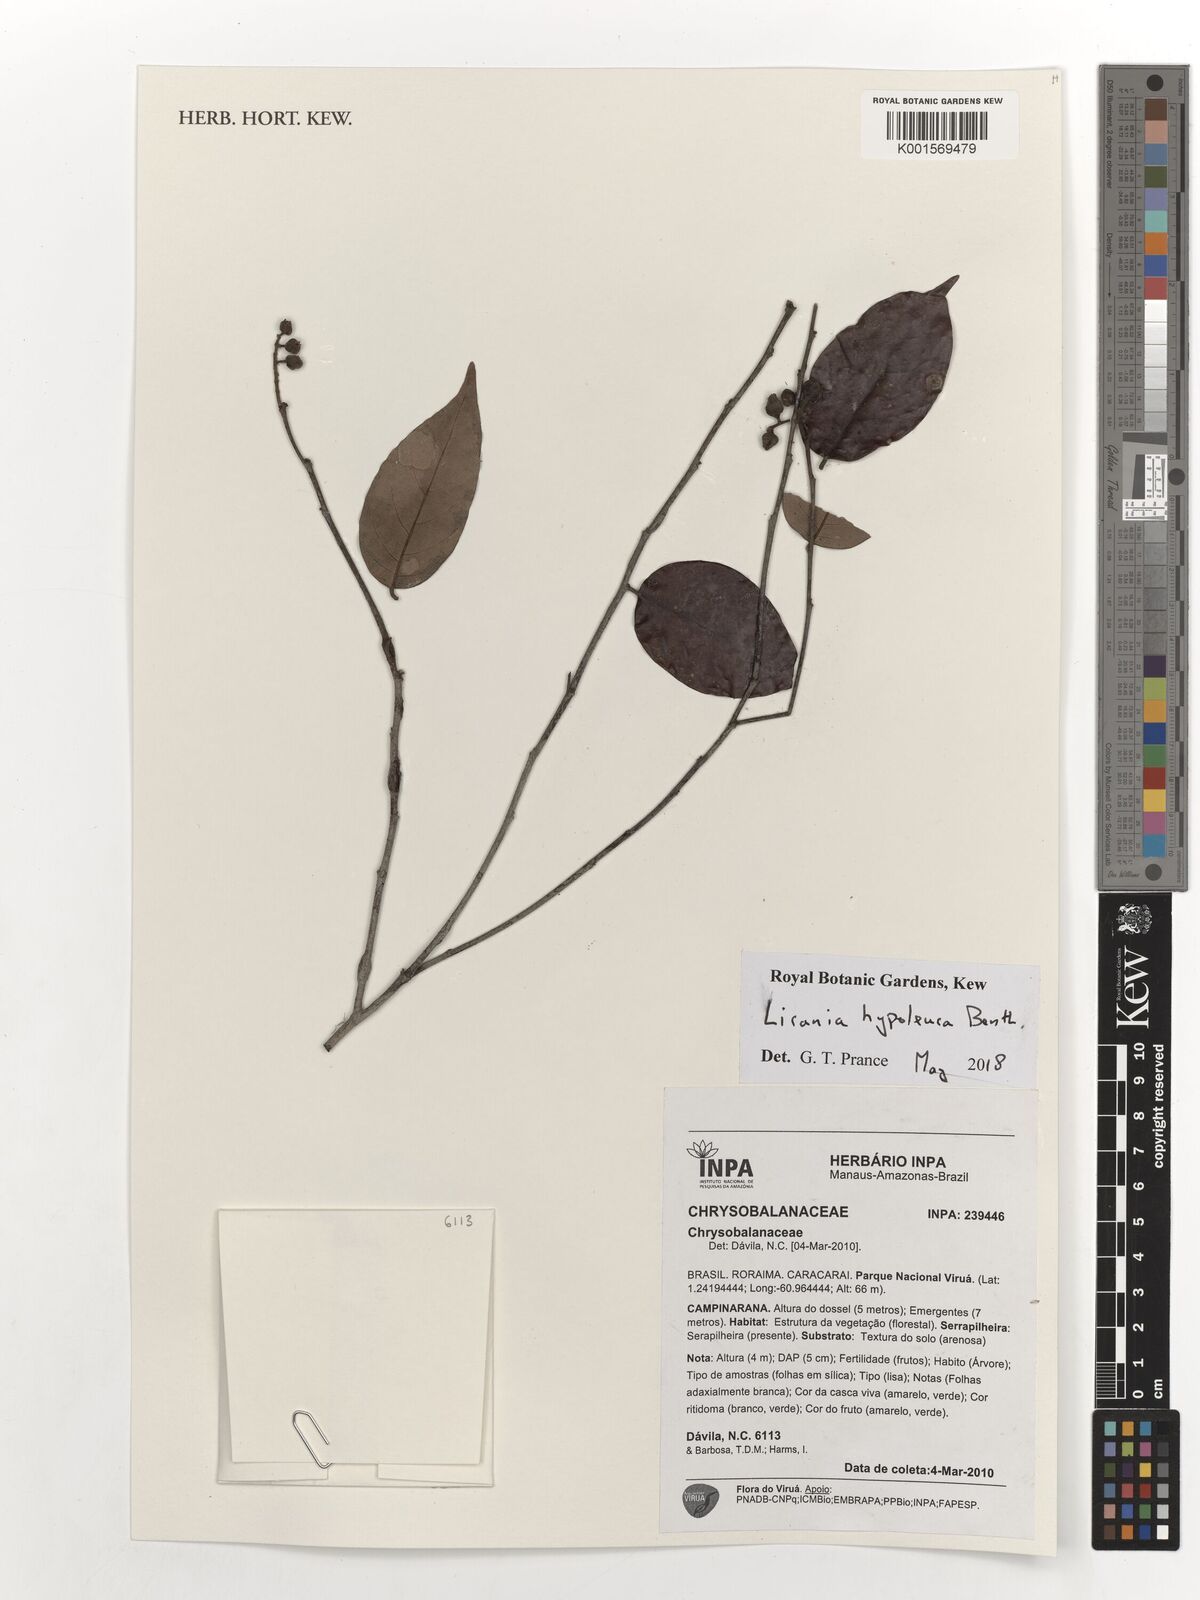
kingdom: Plantae
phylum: Tracheophyta
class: Magnoliopsida
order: Malpighiales
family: Chrysobalanaceae
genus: Licania
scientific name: Licania hypoleuca
